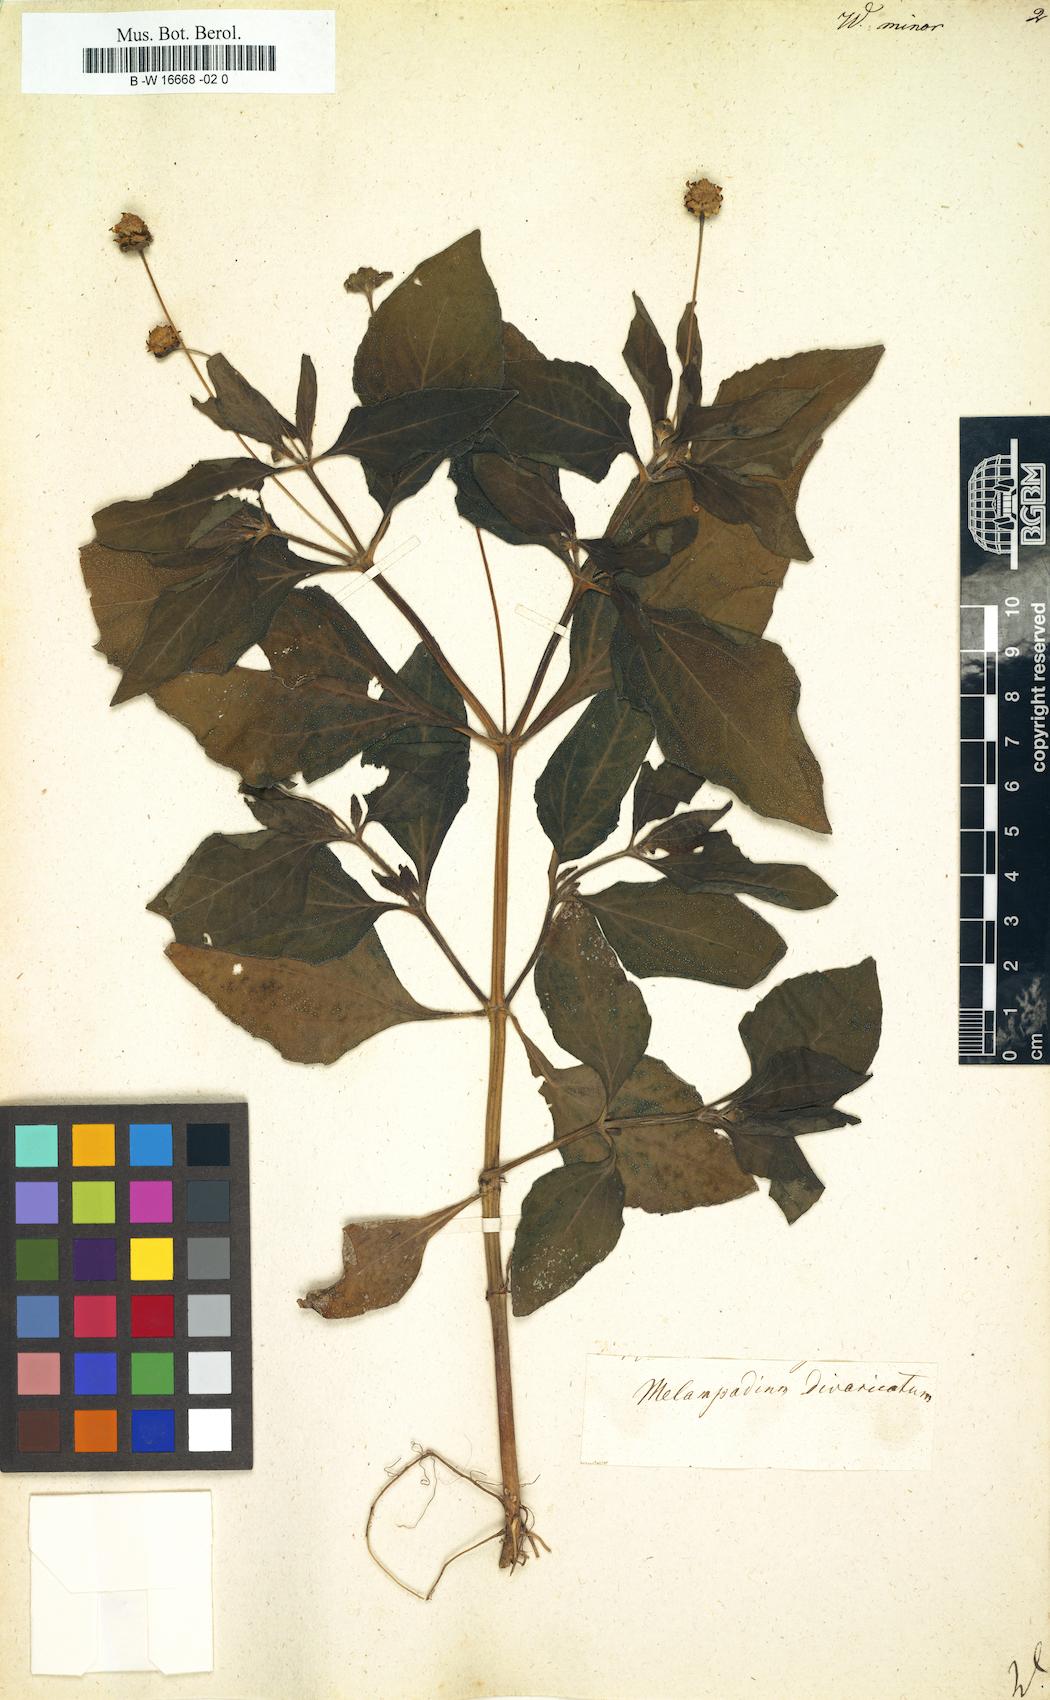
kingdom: Plantae
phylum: Tracheophyta
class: Magnoliopsida
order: Asterales
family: Asteraceae
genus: Melampodium
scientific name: Melampodium divaricatum
